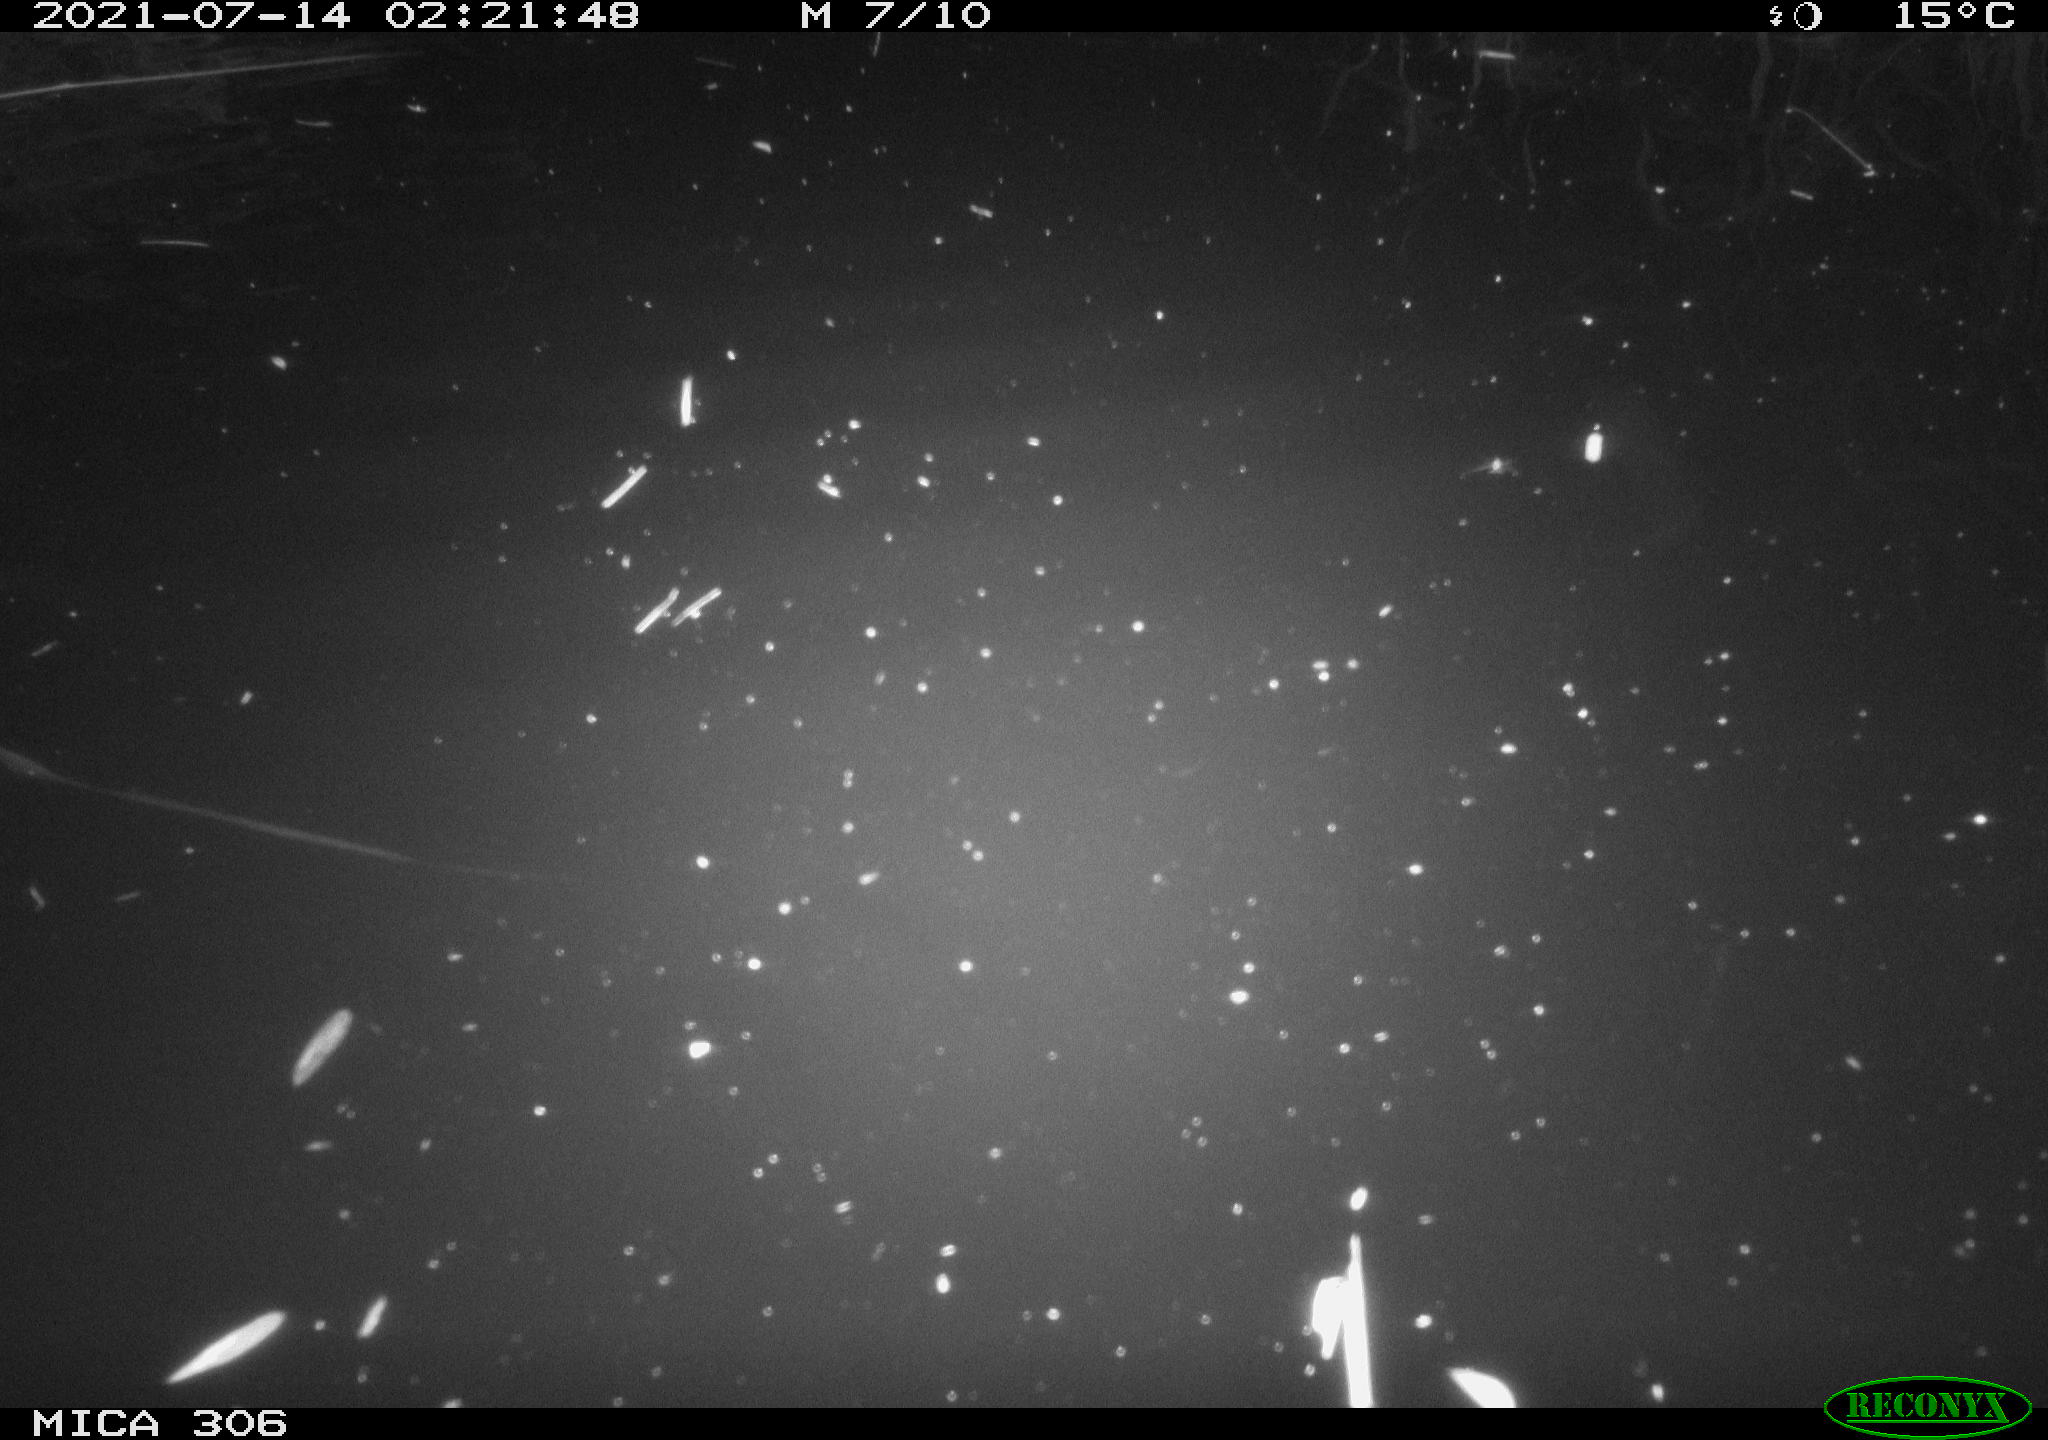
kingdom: Animalia
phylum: Chordata
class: Mammalia
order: Rodentia
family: Muridae
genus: Rattus
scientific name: Rattus norvegicus
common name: Brown rat
